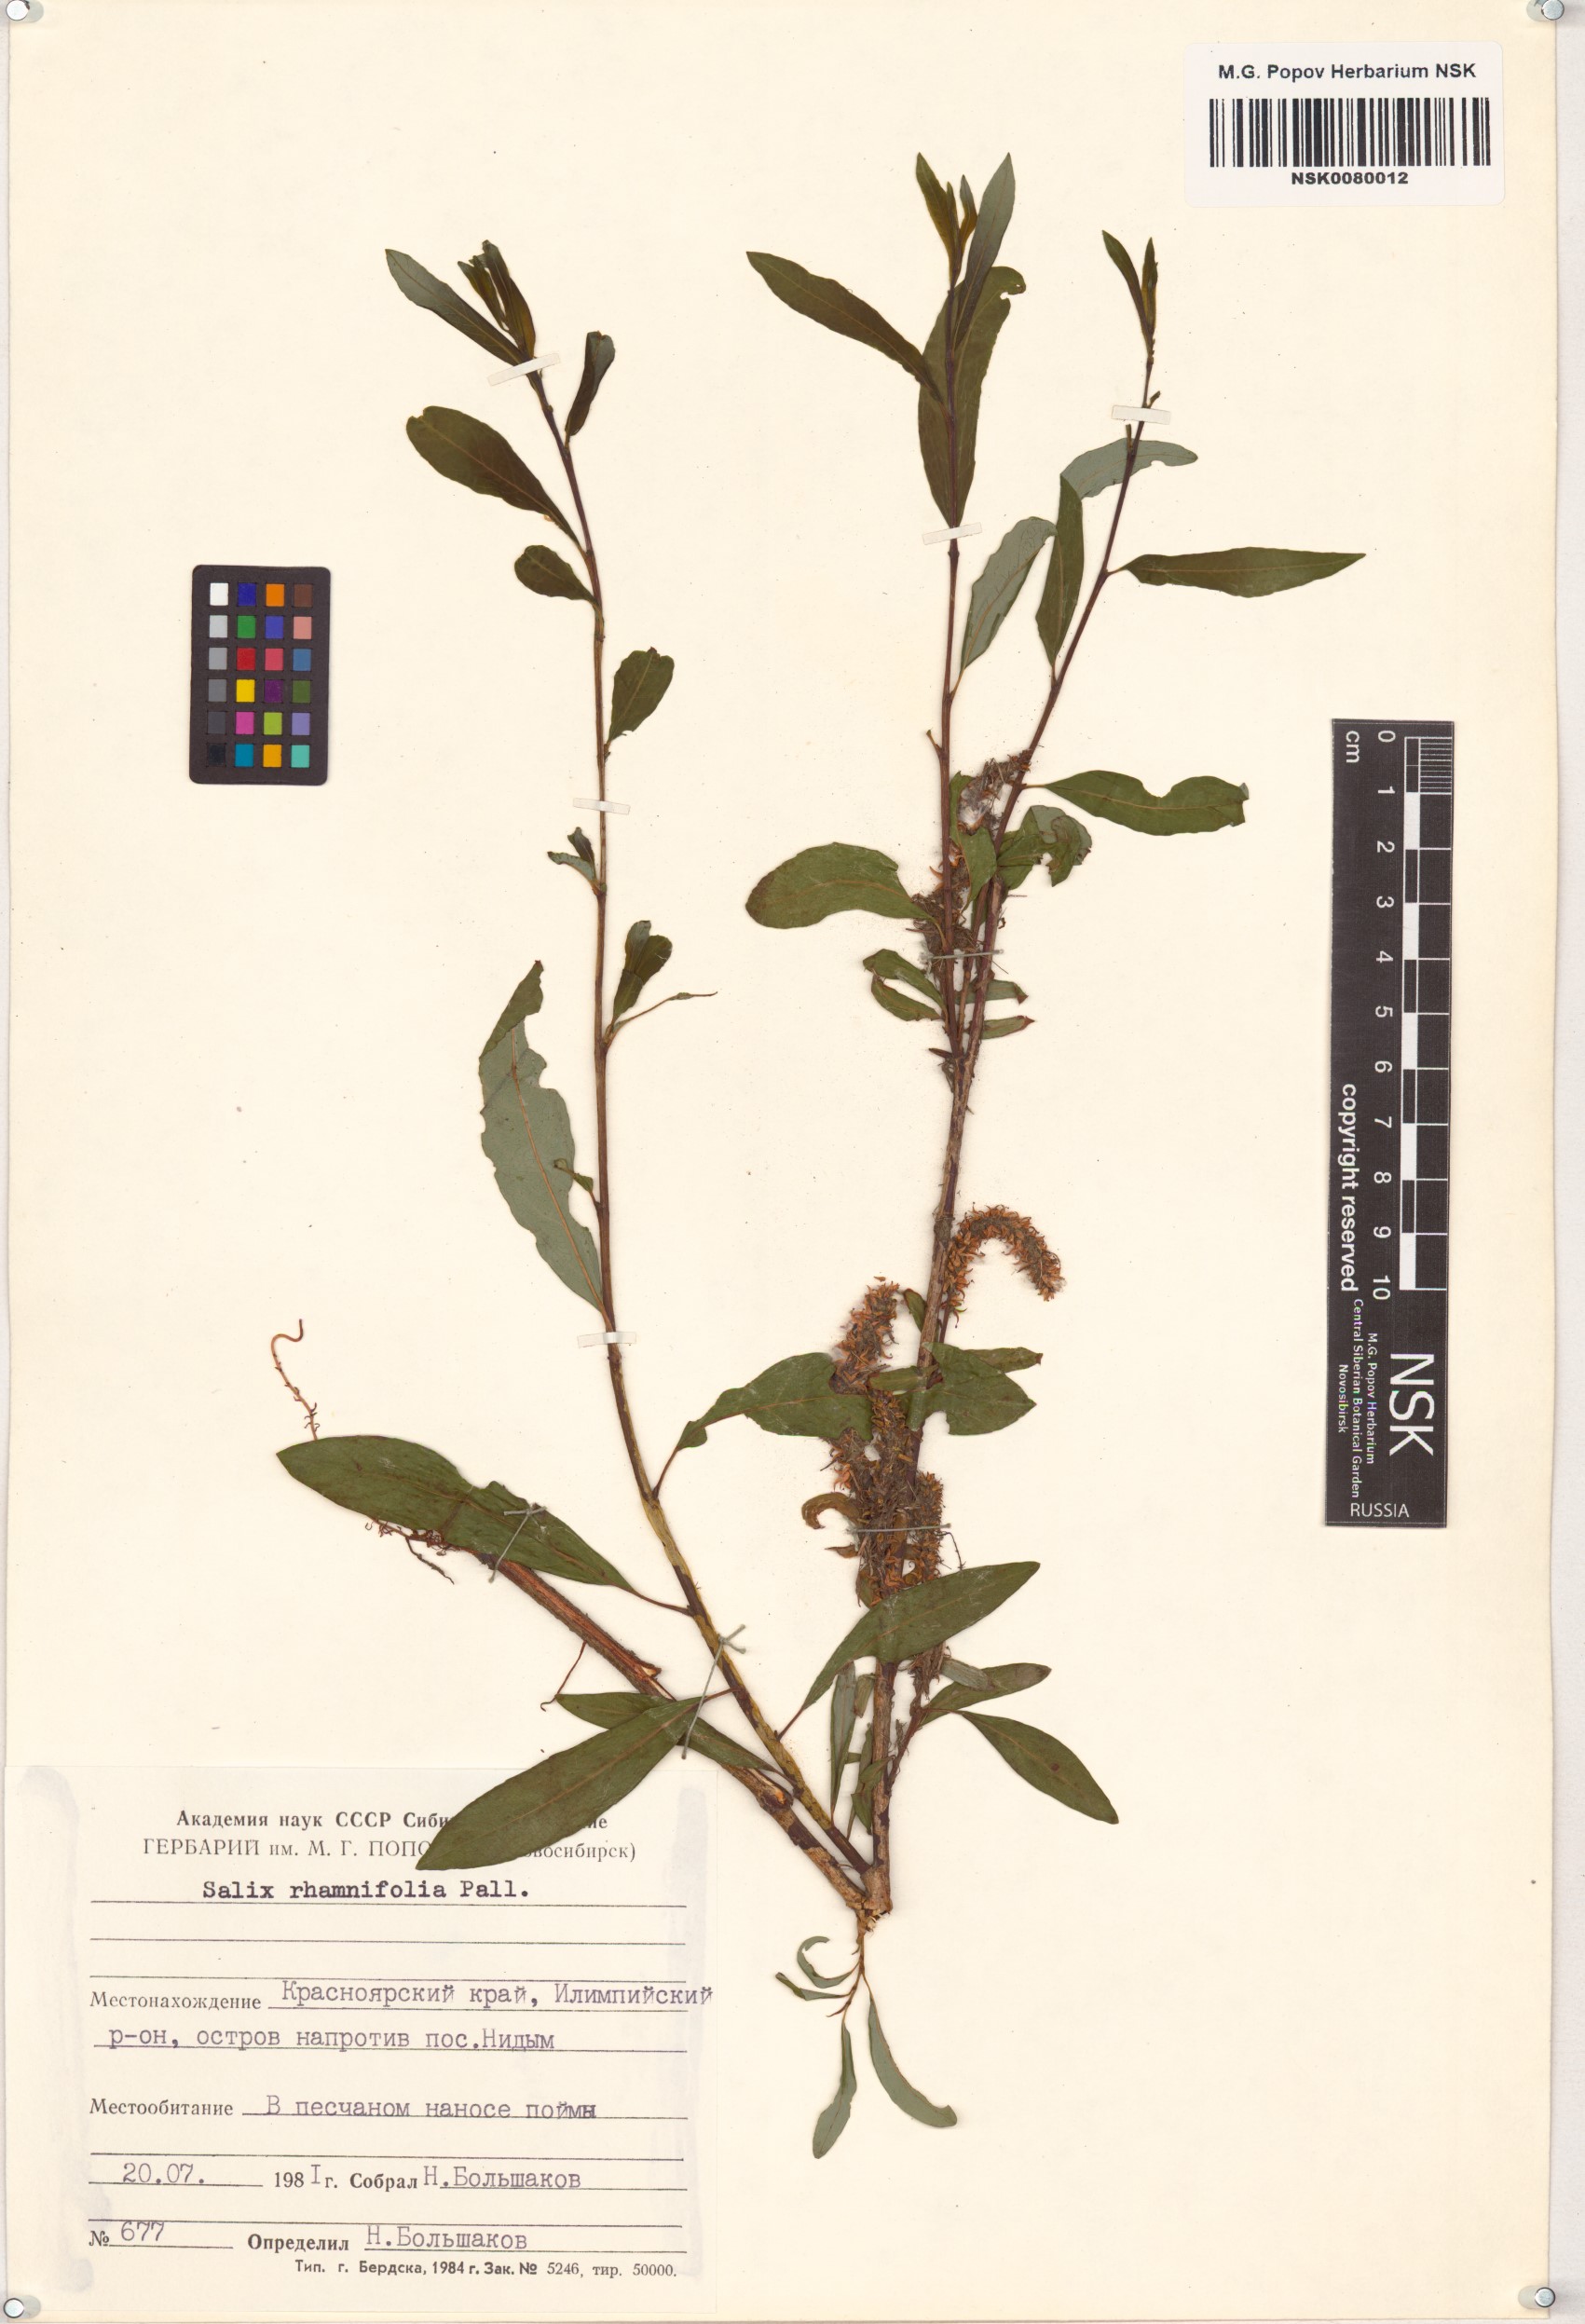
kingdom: Plantae
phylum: Tracheophyta
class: Magnoliopsida
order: Malpighiales
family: Salicaceae
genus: Salix
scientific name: Salix rhamnifolia
